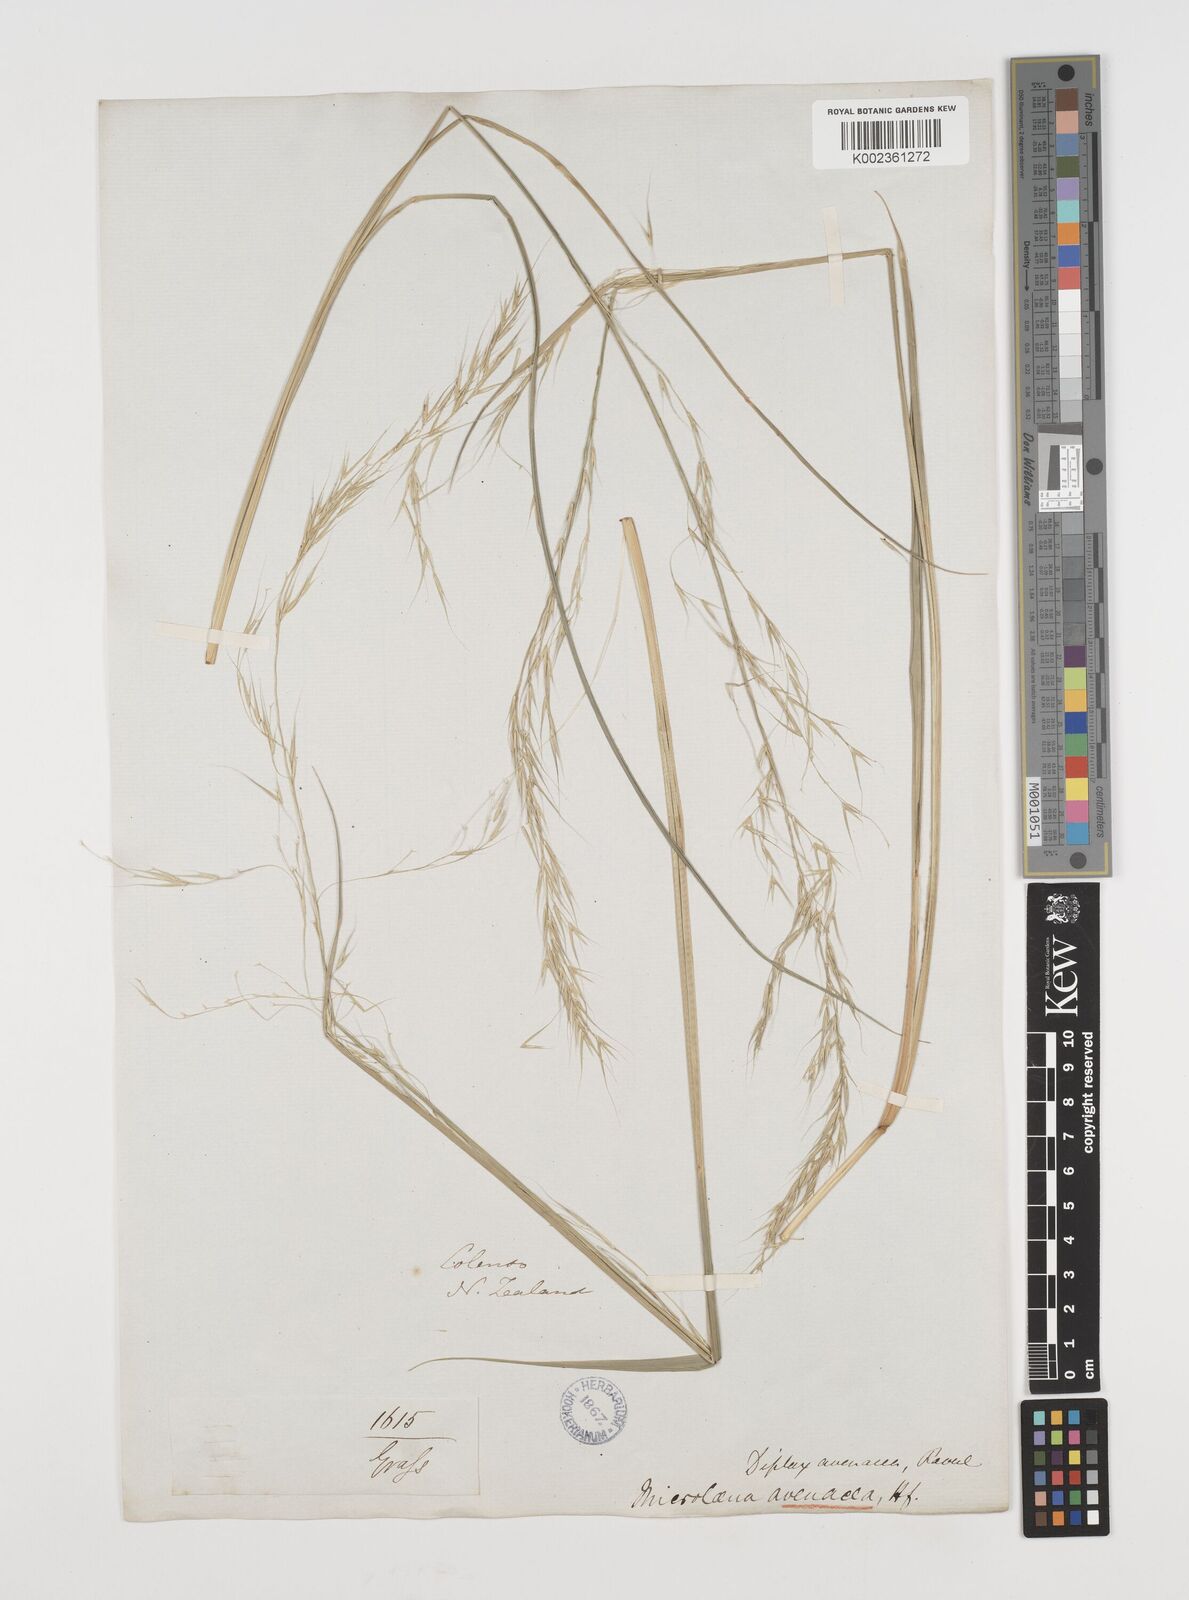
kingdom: Plantae
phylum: Tracheophyta
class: Liliopsida
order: Poales
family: Poaceae
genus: Ehrharta
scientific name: Ehrharta diplax
